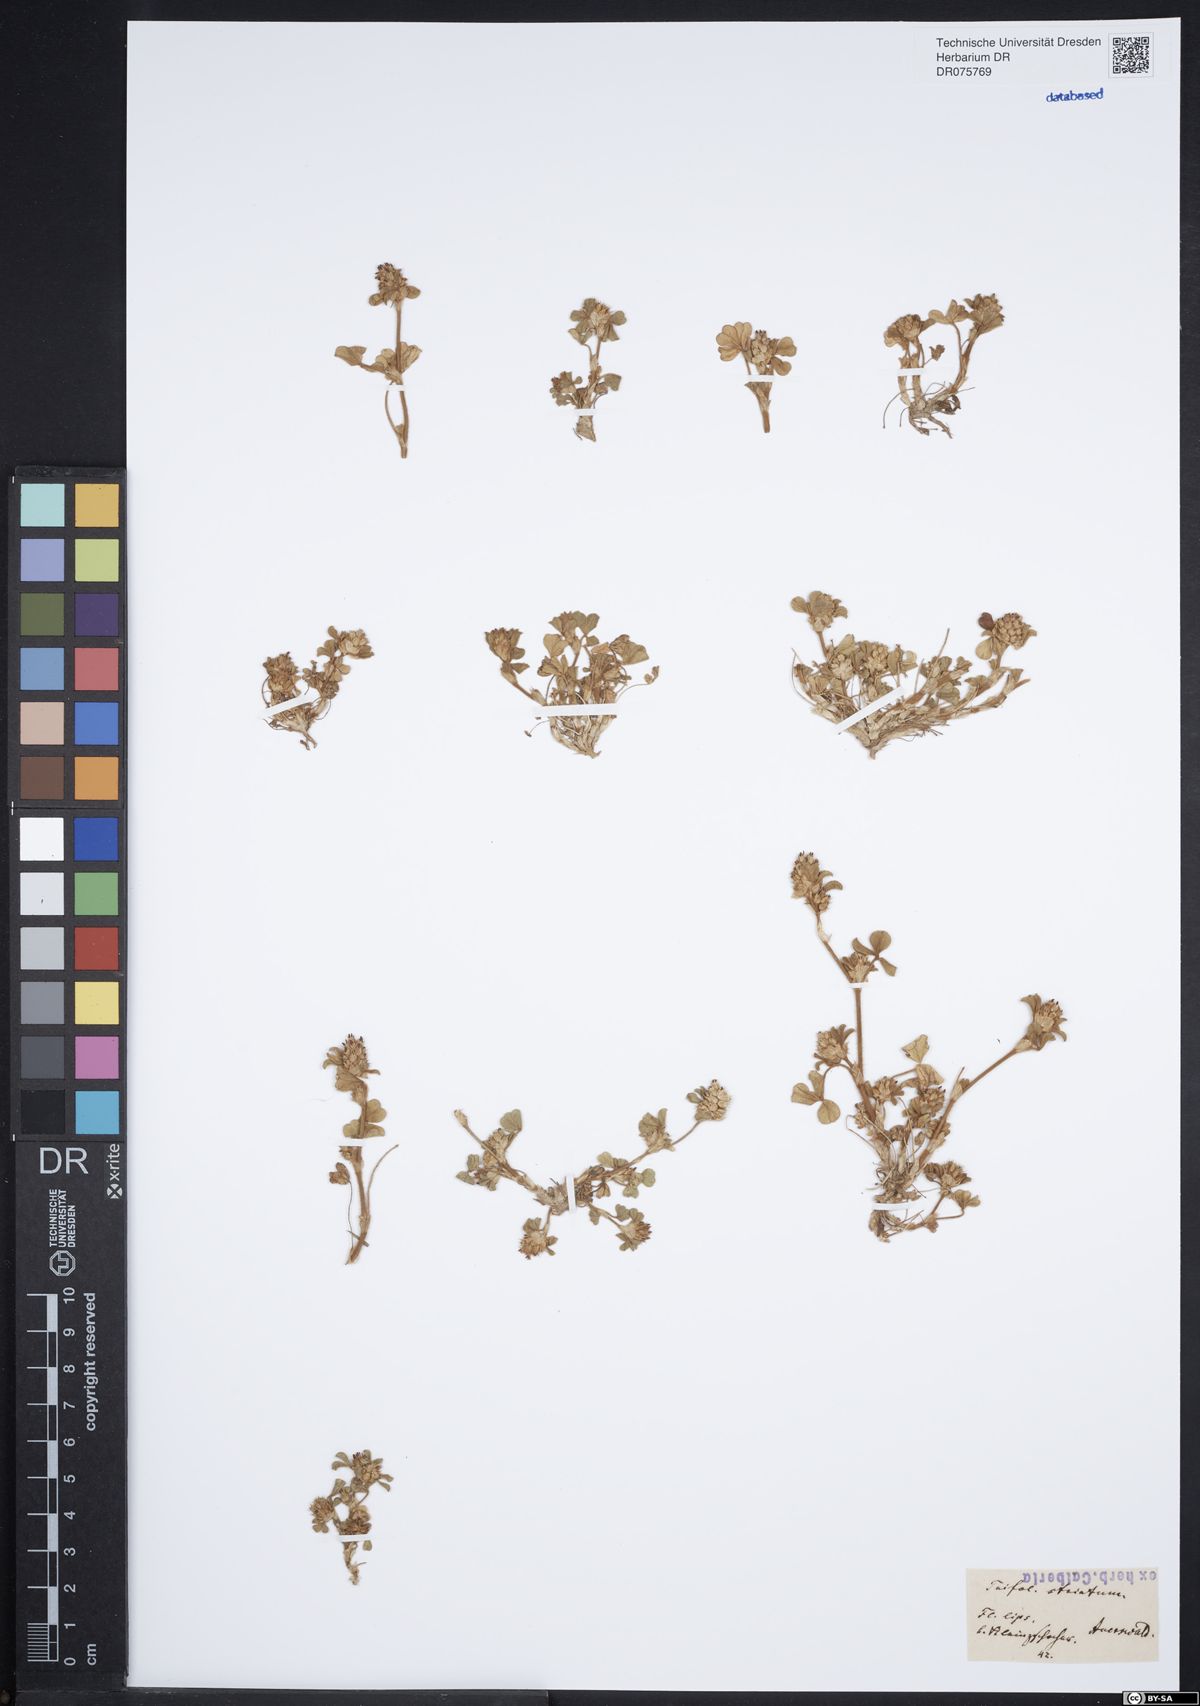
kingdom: Plantae
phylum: Tracheophyta
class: Magnoliopsida
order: Fabales
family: Fabaceae
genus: Trifolium
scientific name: Trifolium striatum
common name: Knotted clover
